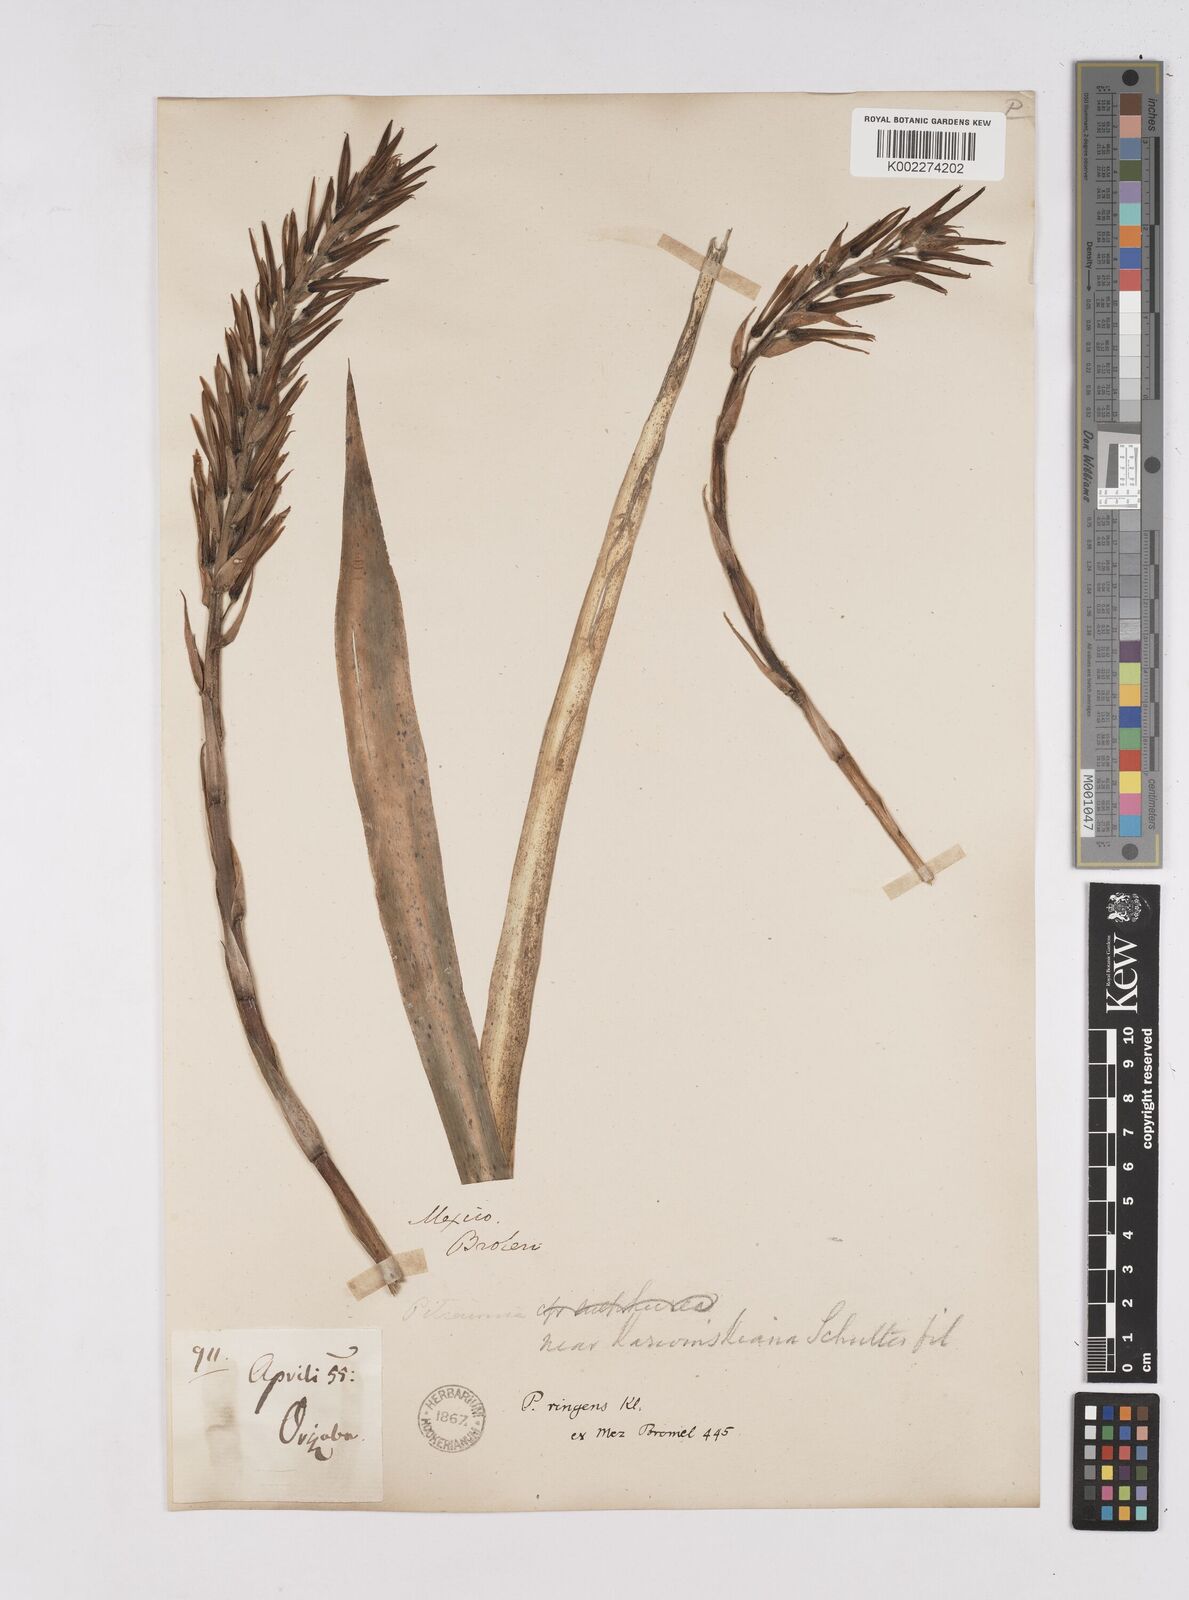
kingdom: Plantae
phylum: Tracheophyta
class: Liliopsida
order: Poales
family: Bromeliaceae
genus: Pitcairnia
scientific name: Pitcairnia ringens
